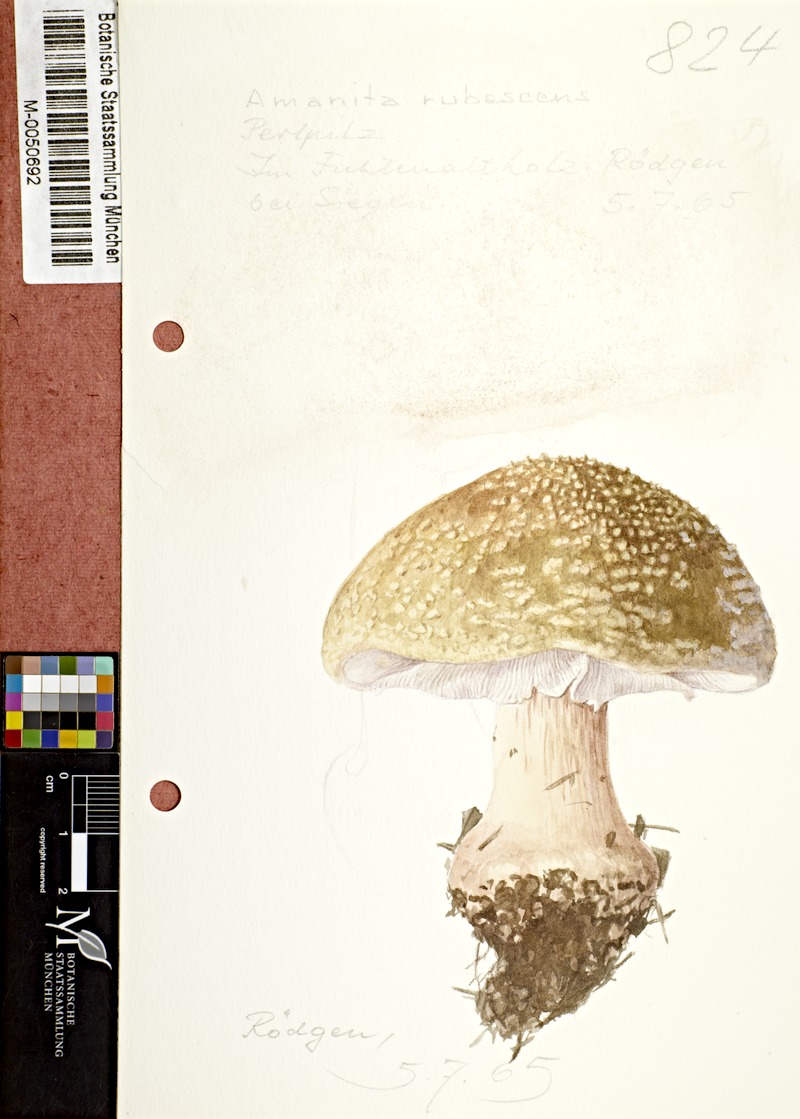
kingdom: Fungi
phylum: Basidiomycota
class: Agaricomycetes
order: Agaricales
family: Amanitaceae
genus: Amanita
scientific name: Amanita rubescens
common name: Blusher
